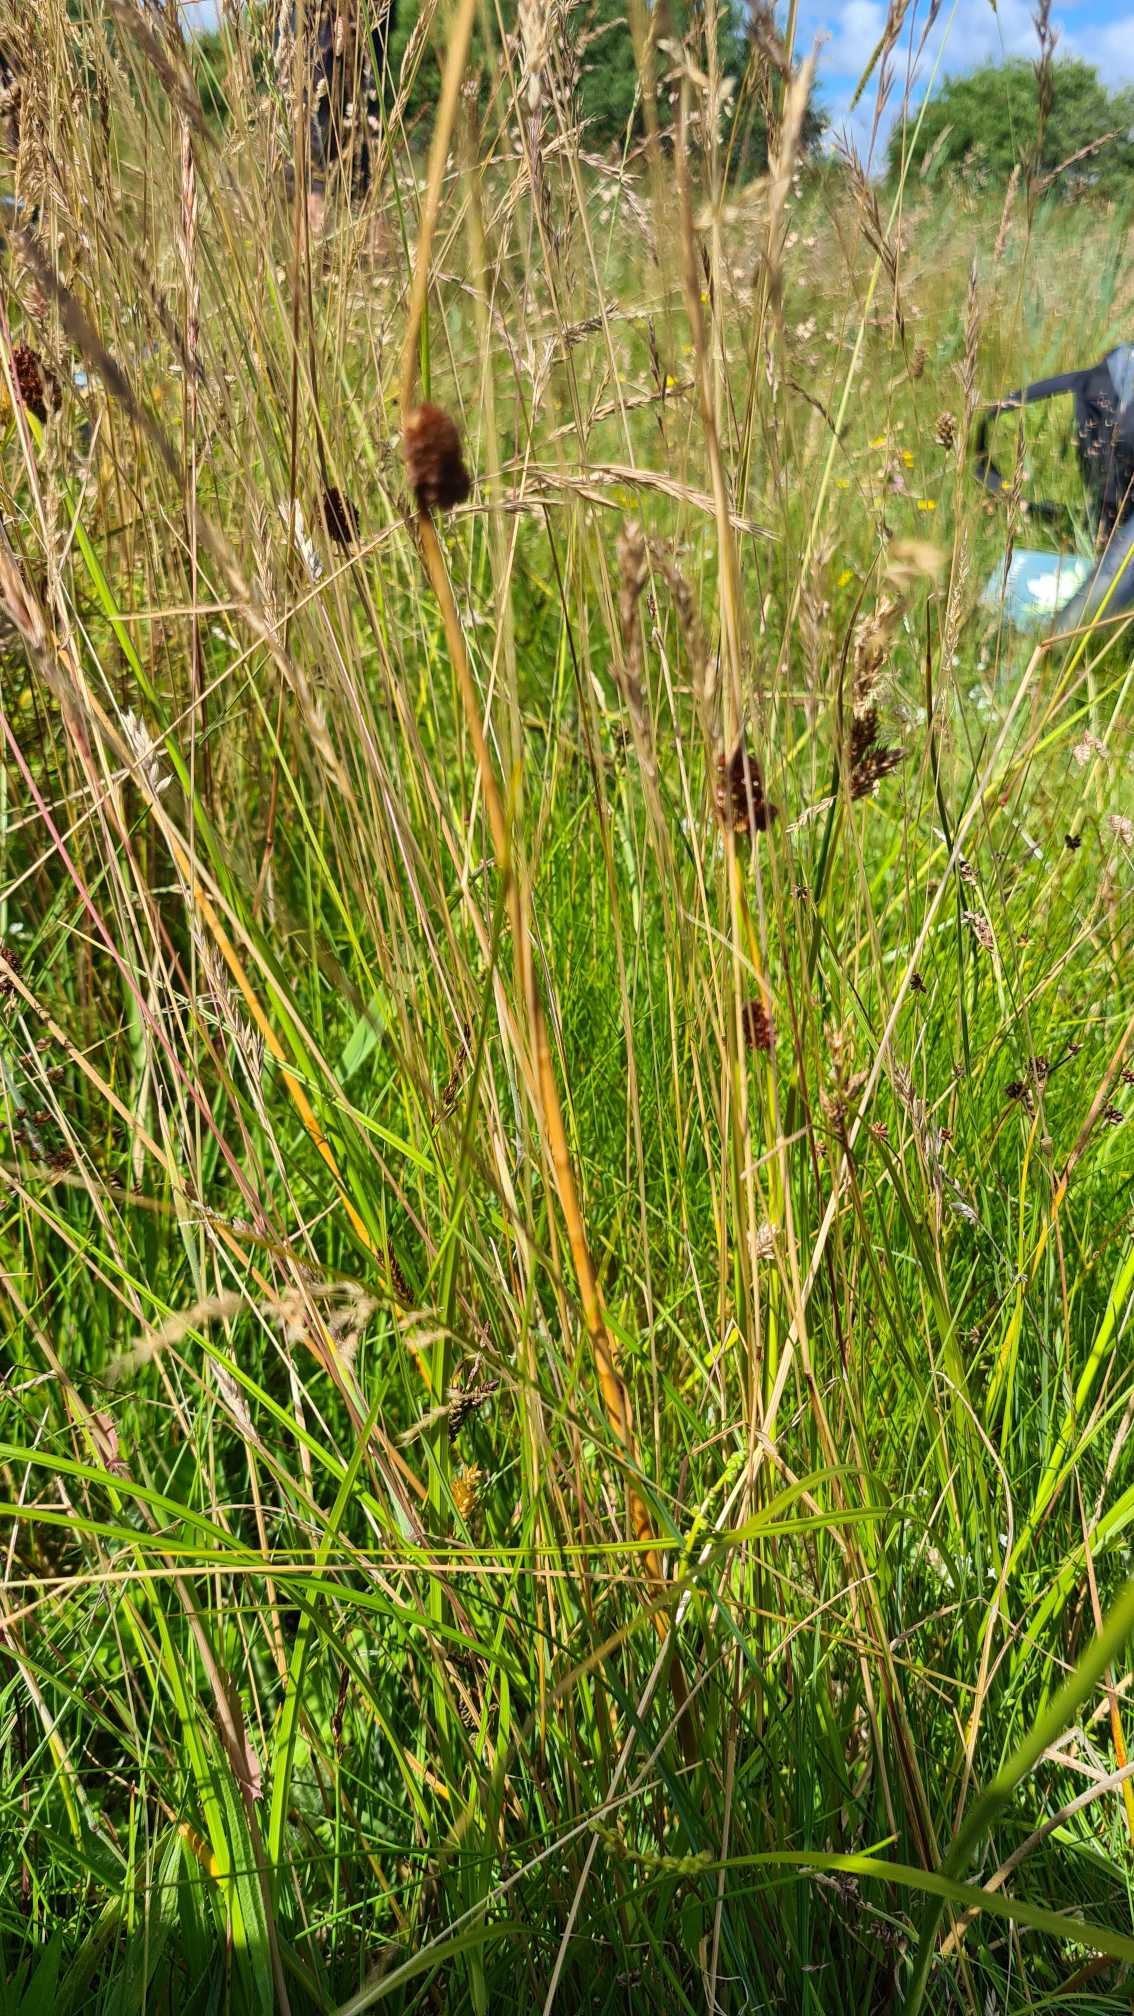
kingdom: Plantae
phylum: Tracheophyta
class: Liliopsida
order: Poales
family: Juncaceae
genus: Juncus
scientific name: Juncus conglomeratus
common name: Knop-siv
